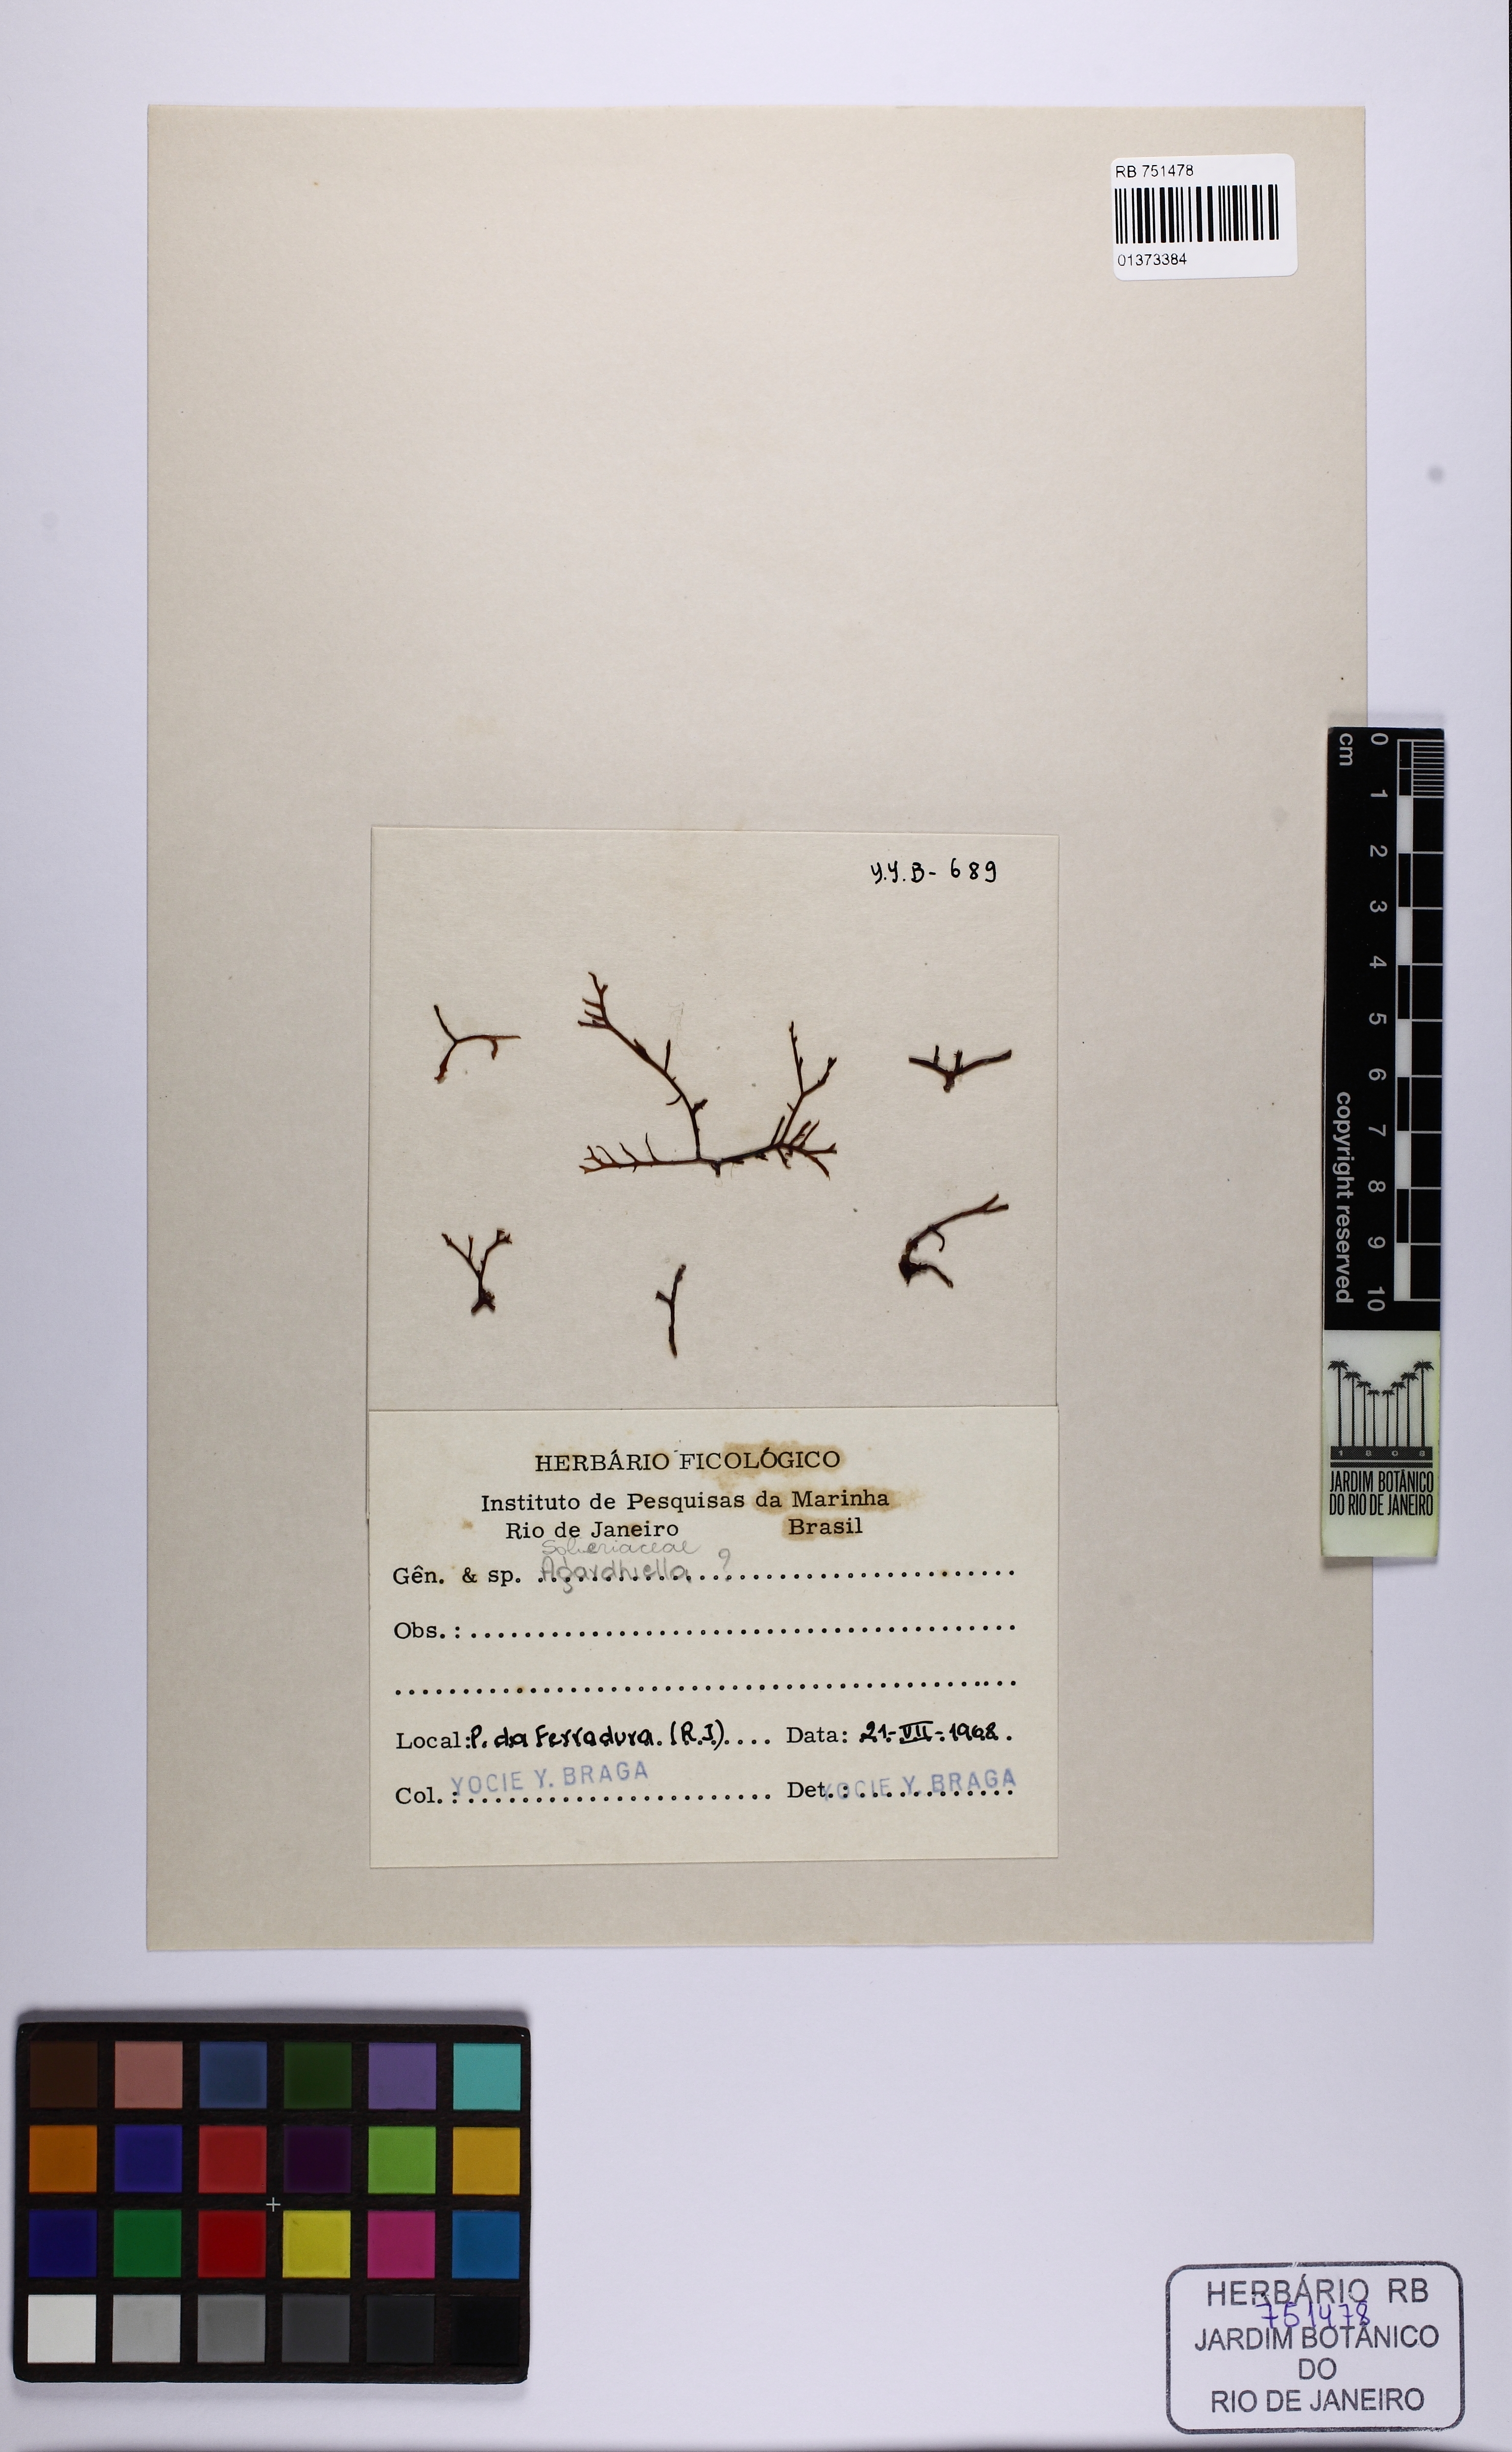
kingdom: Plantae
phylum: Rhodophyta
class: Florideophyceae
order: Gigartinales
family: Solieriaceae
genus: Agardhiella
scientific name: Agardhiella
